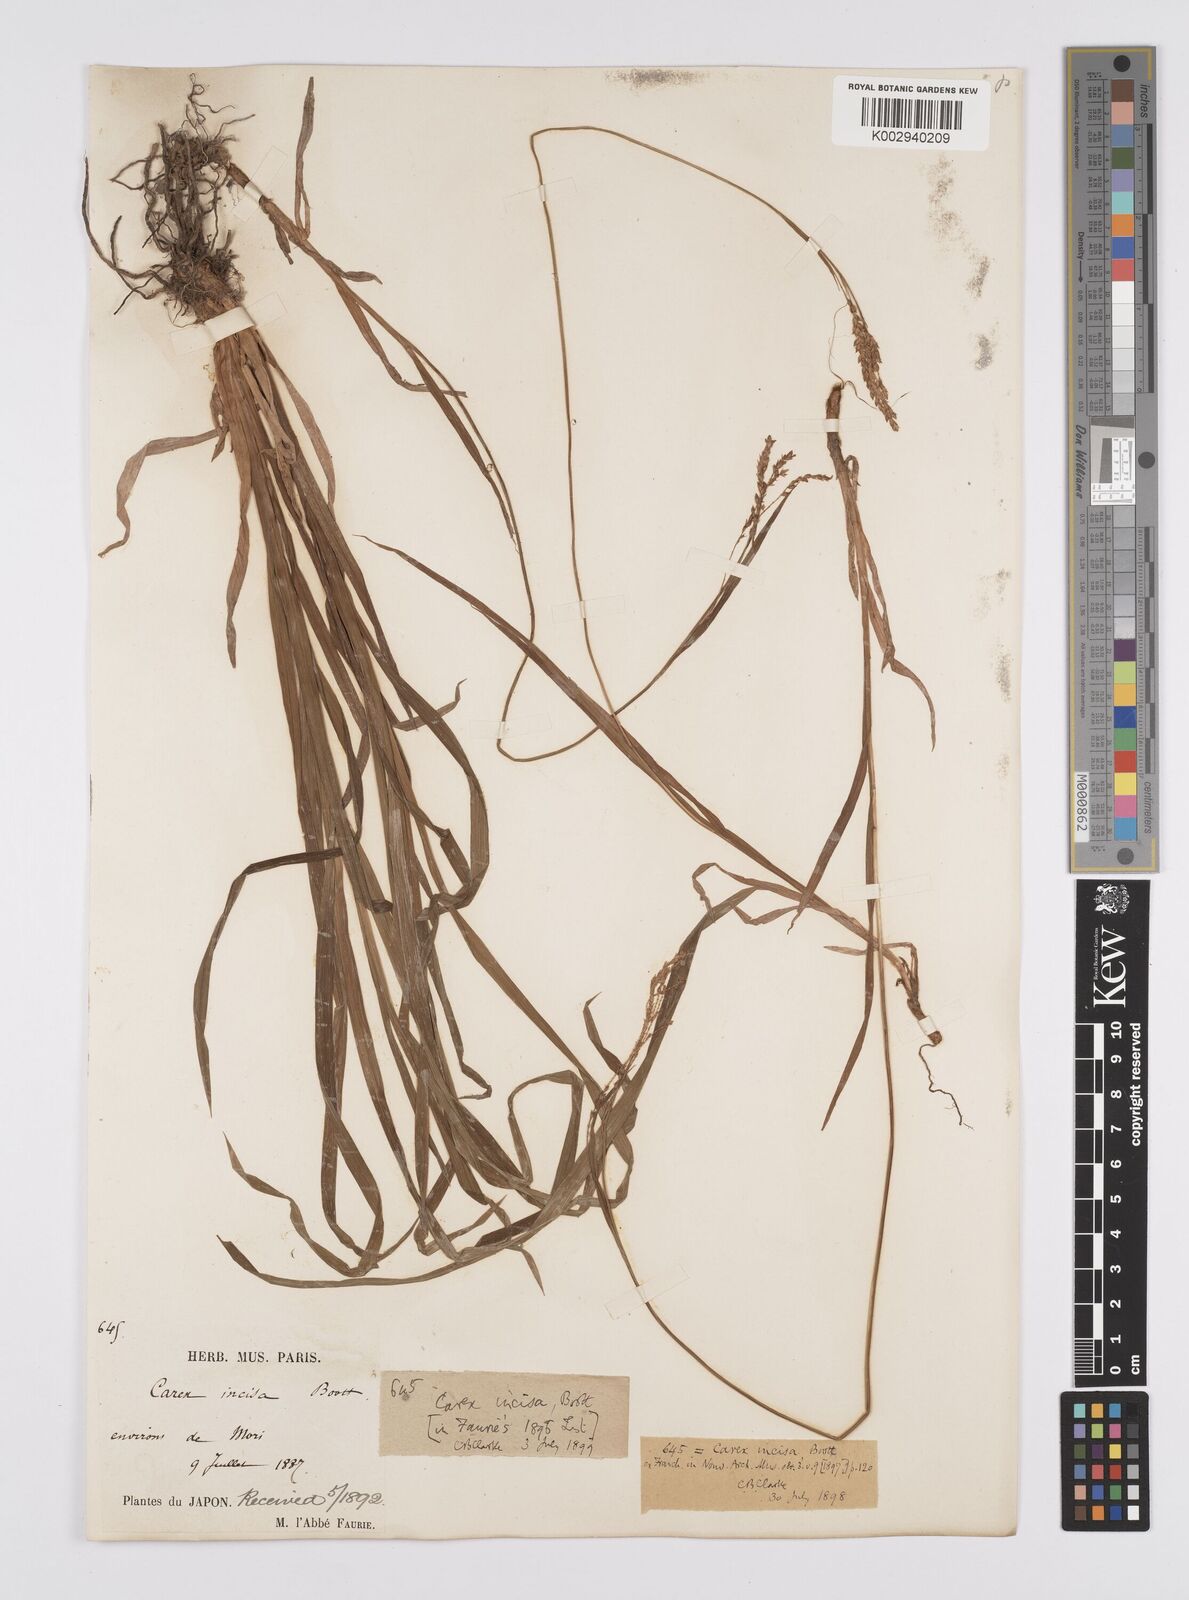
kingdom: Plantae
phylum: Tracheophyta
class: Liliopsida
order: Poales
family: Cyperaceae
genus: Carex
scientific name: Carex incisa
